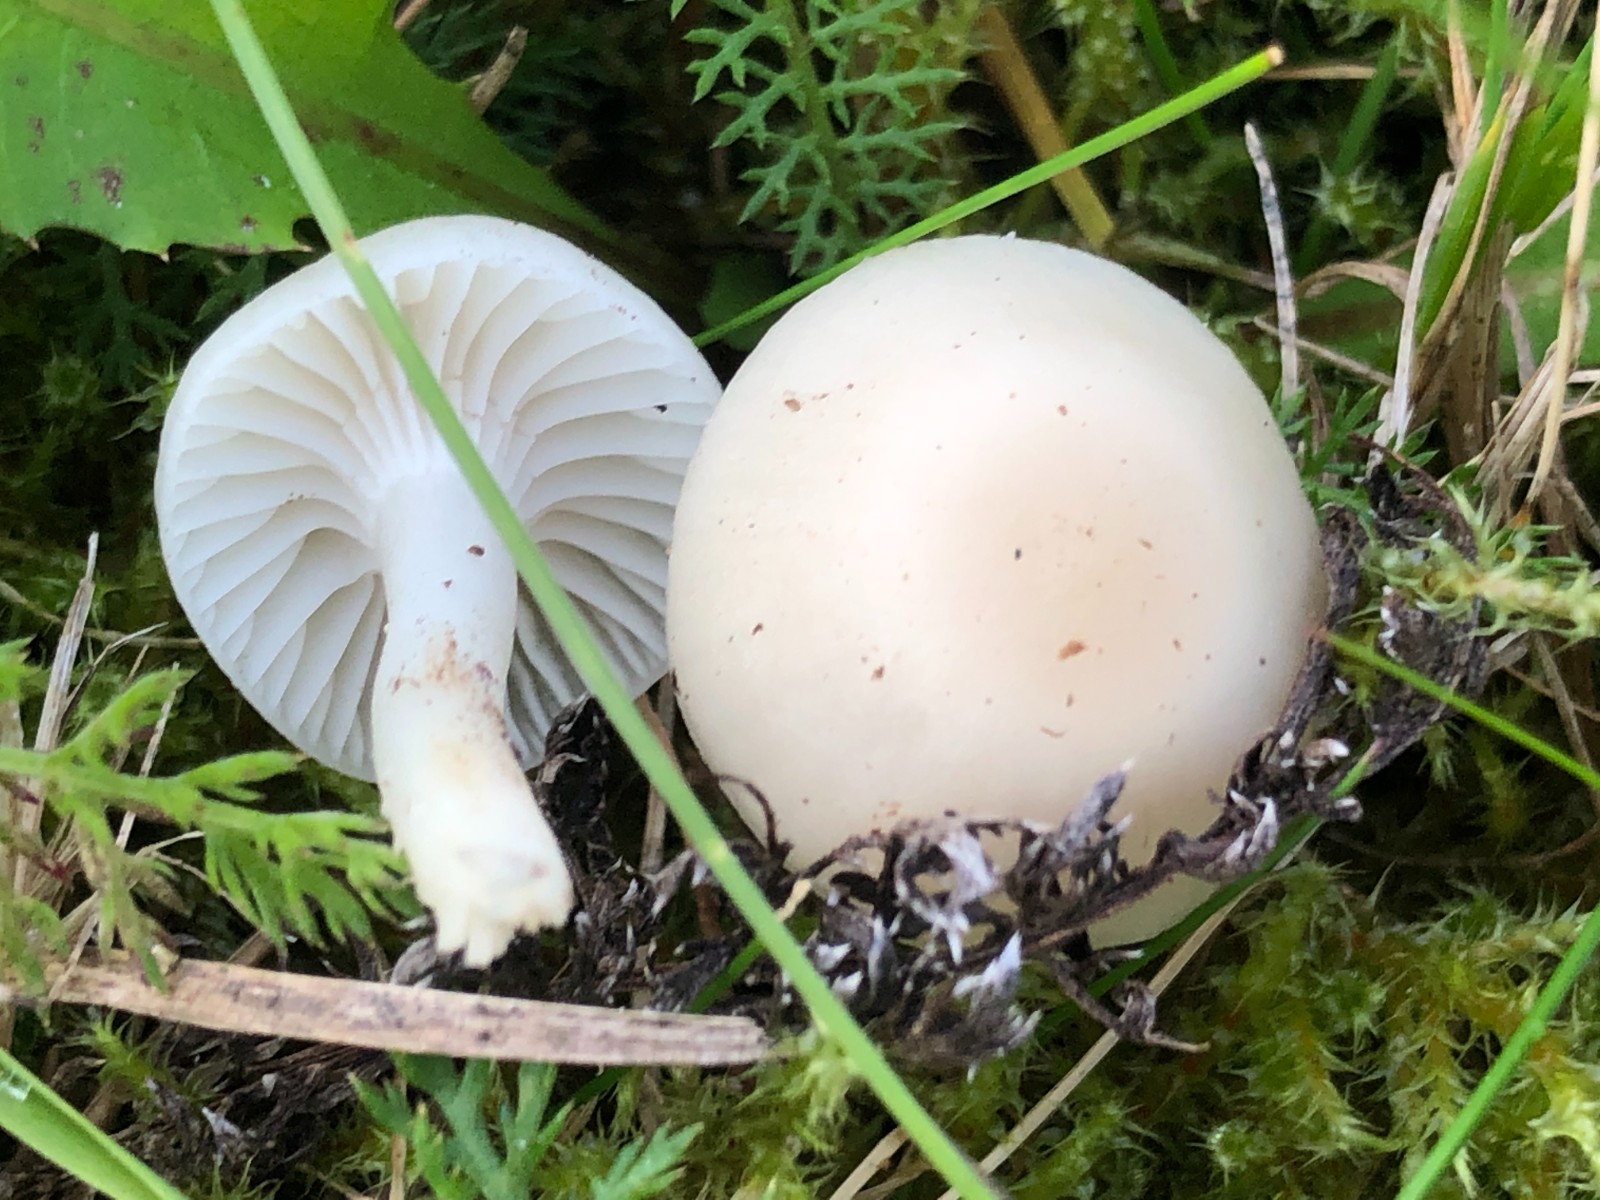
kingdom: Fungi
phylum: Basidiomycota
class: Agaricomycetes
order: Agaricales
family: Hygrophoraceae
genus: Cuphophyllus
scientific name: Cuphophyllus virgineus
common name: snehvid vokshat
